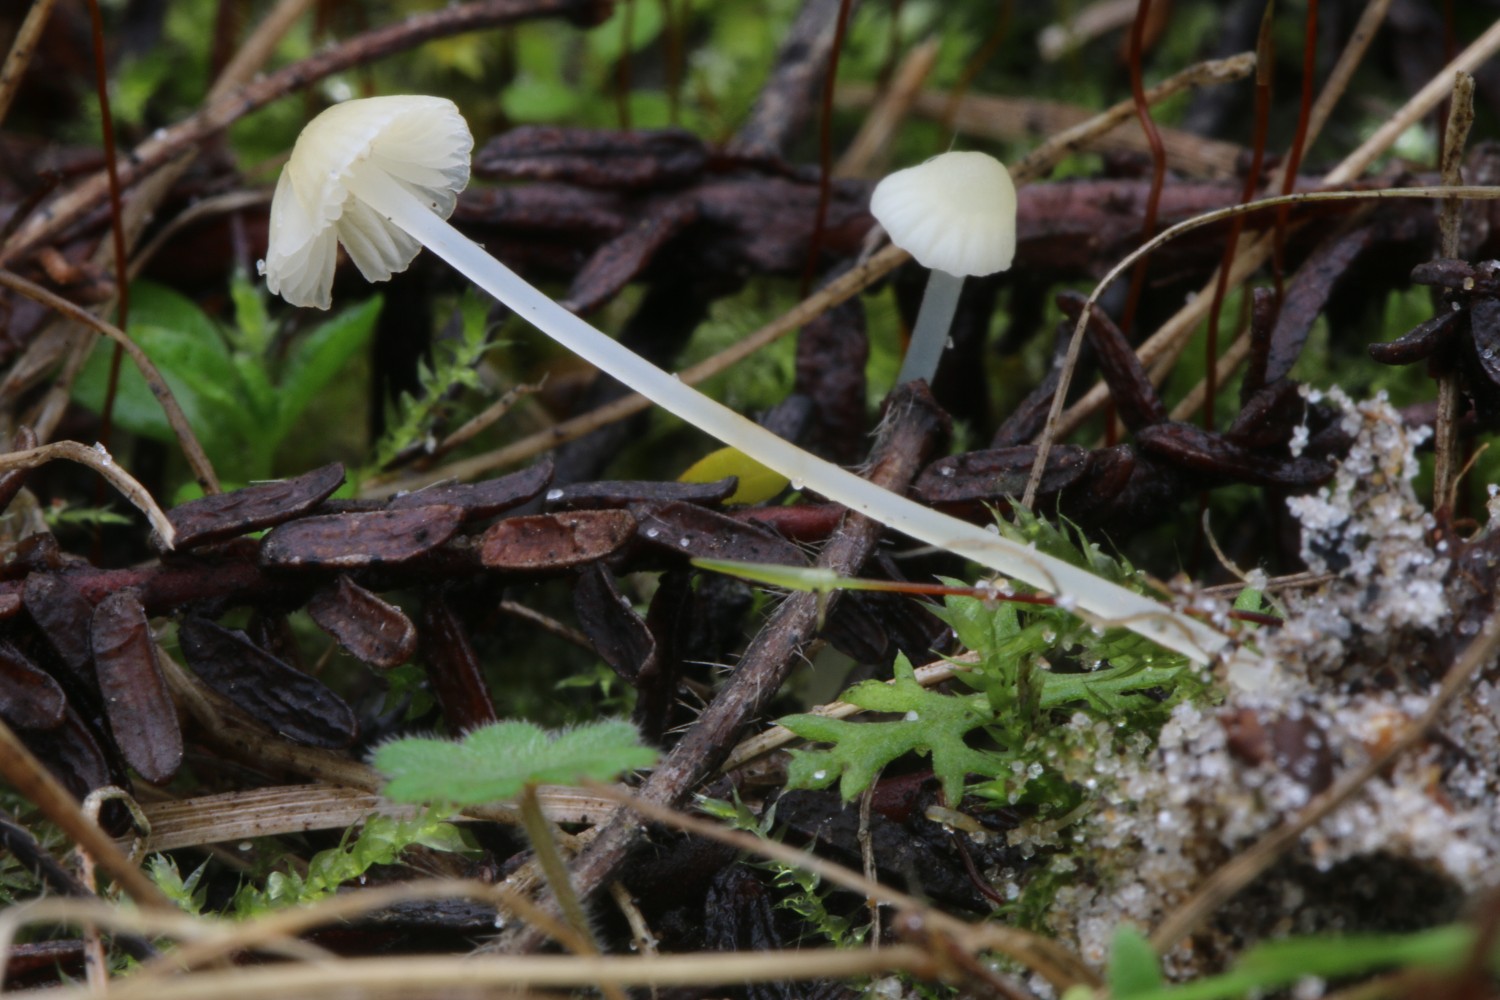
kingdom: Fungi
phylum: Basidiomycota
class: Agaricomycetes
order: Agaricales
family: Mycenaceae
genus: Atheniella
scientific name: Atheniella flavoalba
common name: gulhvid huesvamp
